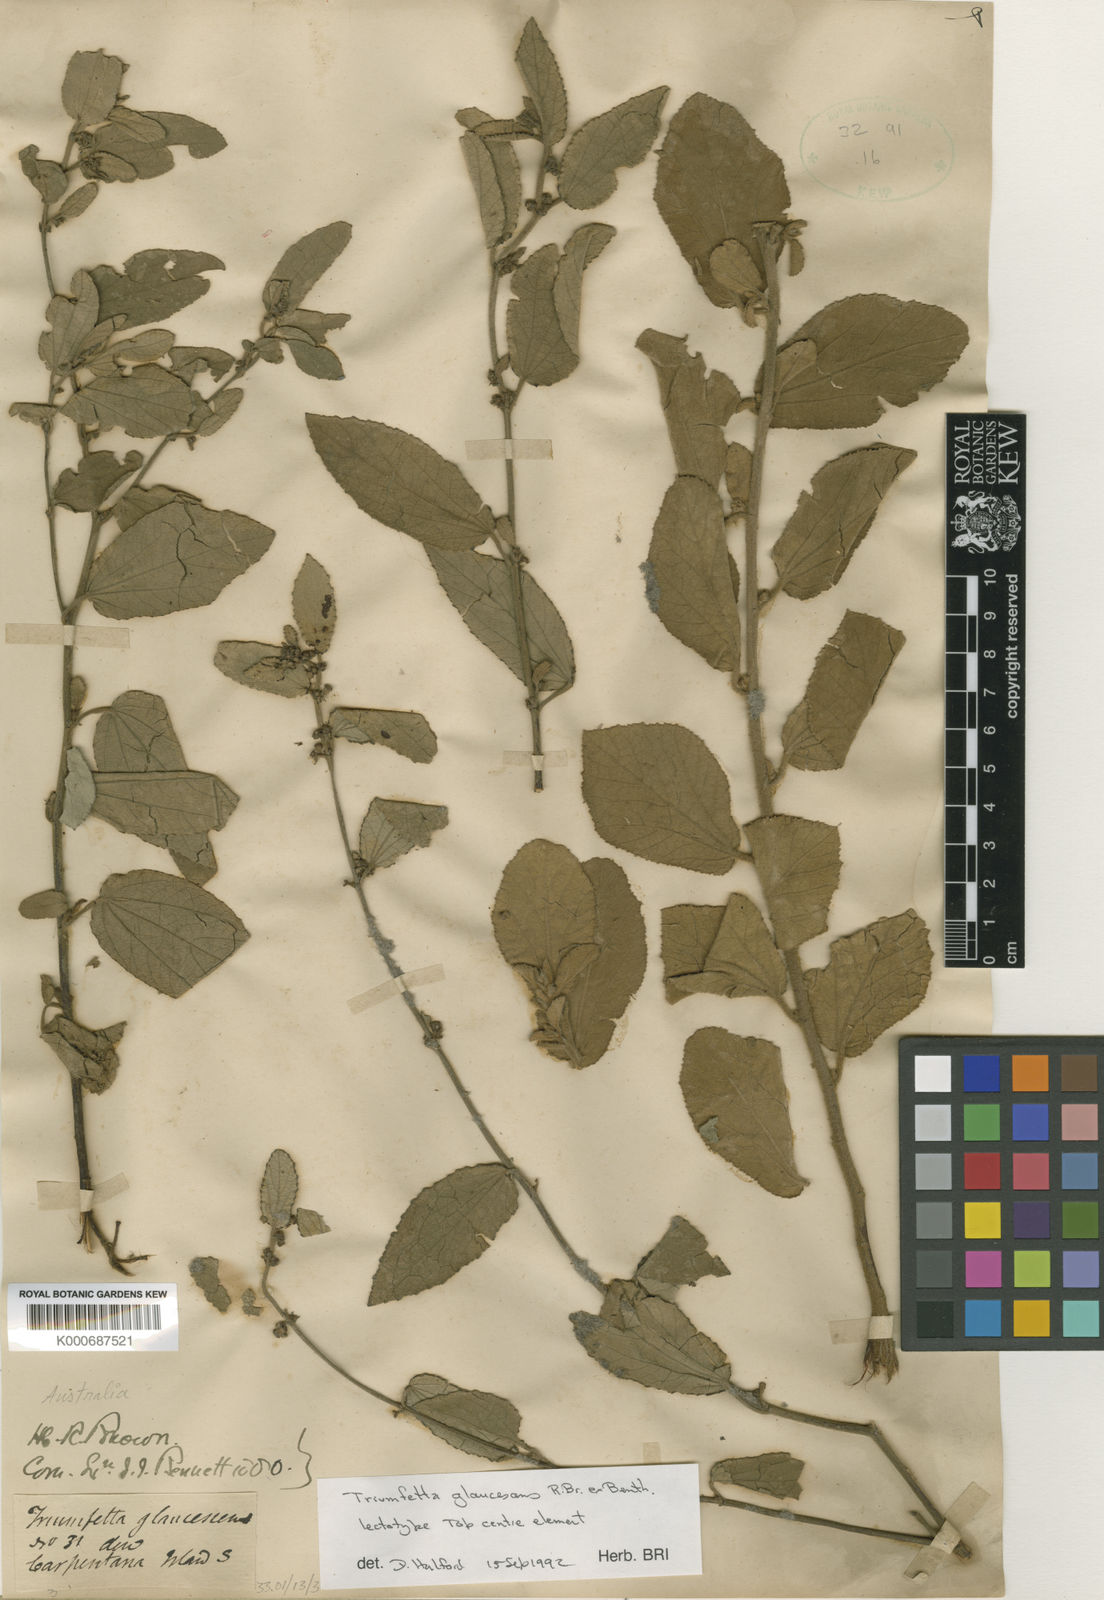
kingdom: Plantae
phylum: Tracheophyta
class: Magnoliopsida
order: Malvales
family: Malvaceae
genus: Triumfetta
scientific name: Triumfetta glaucescens
